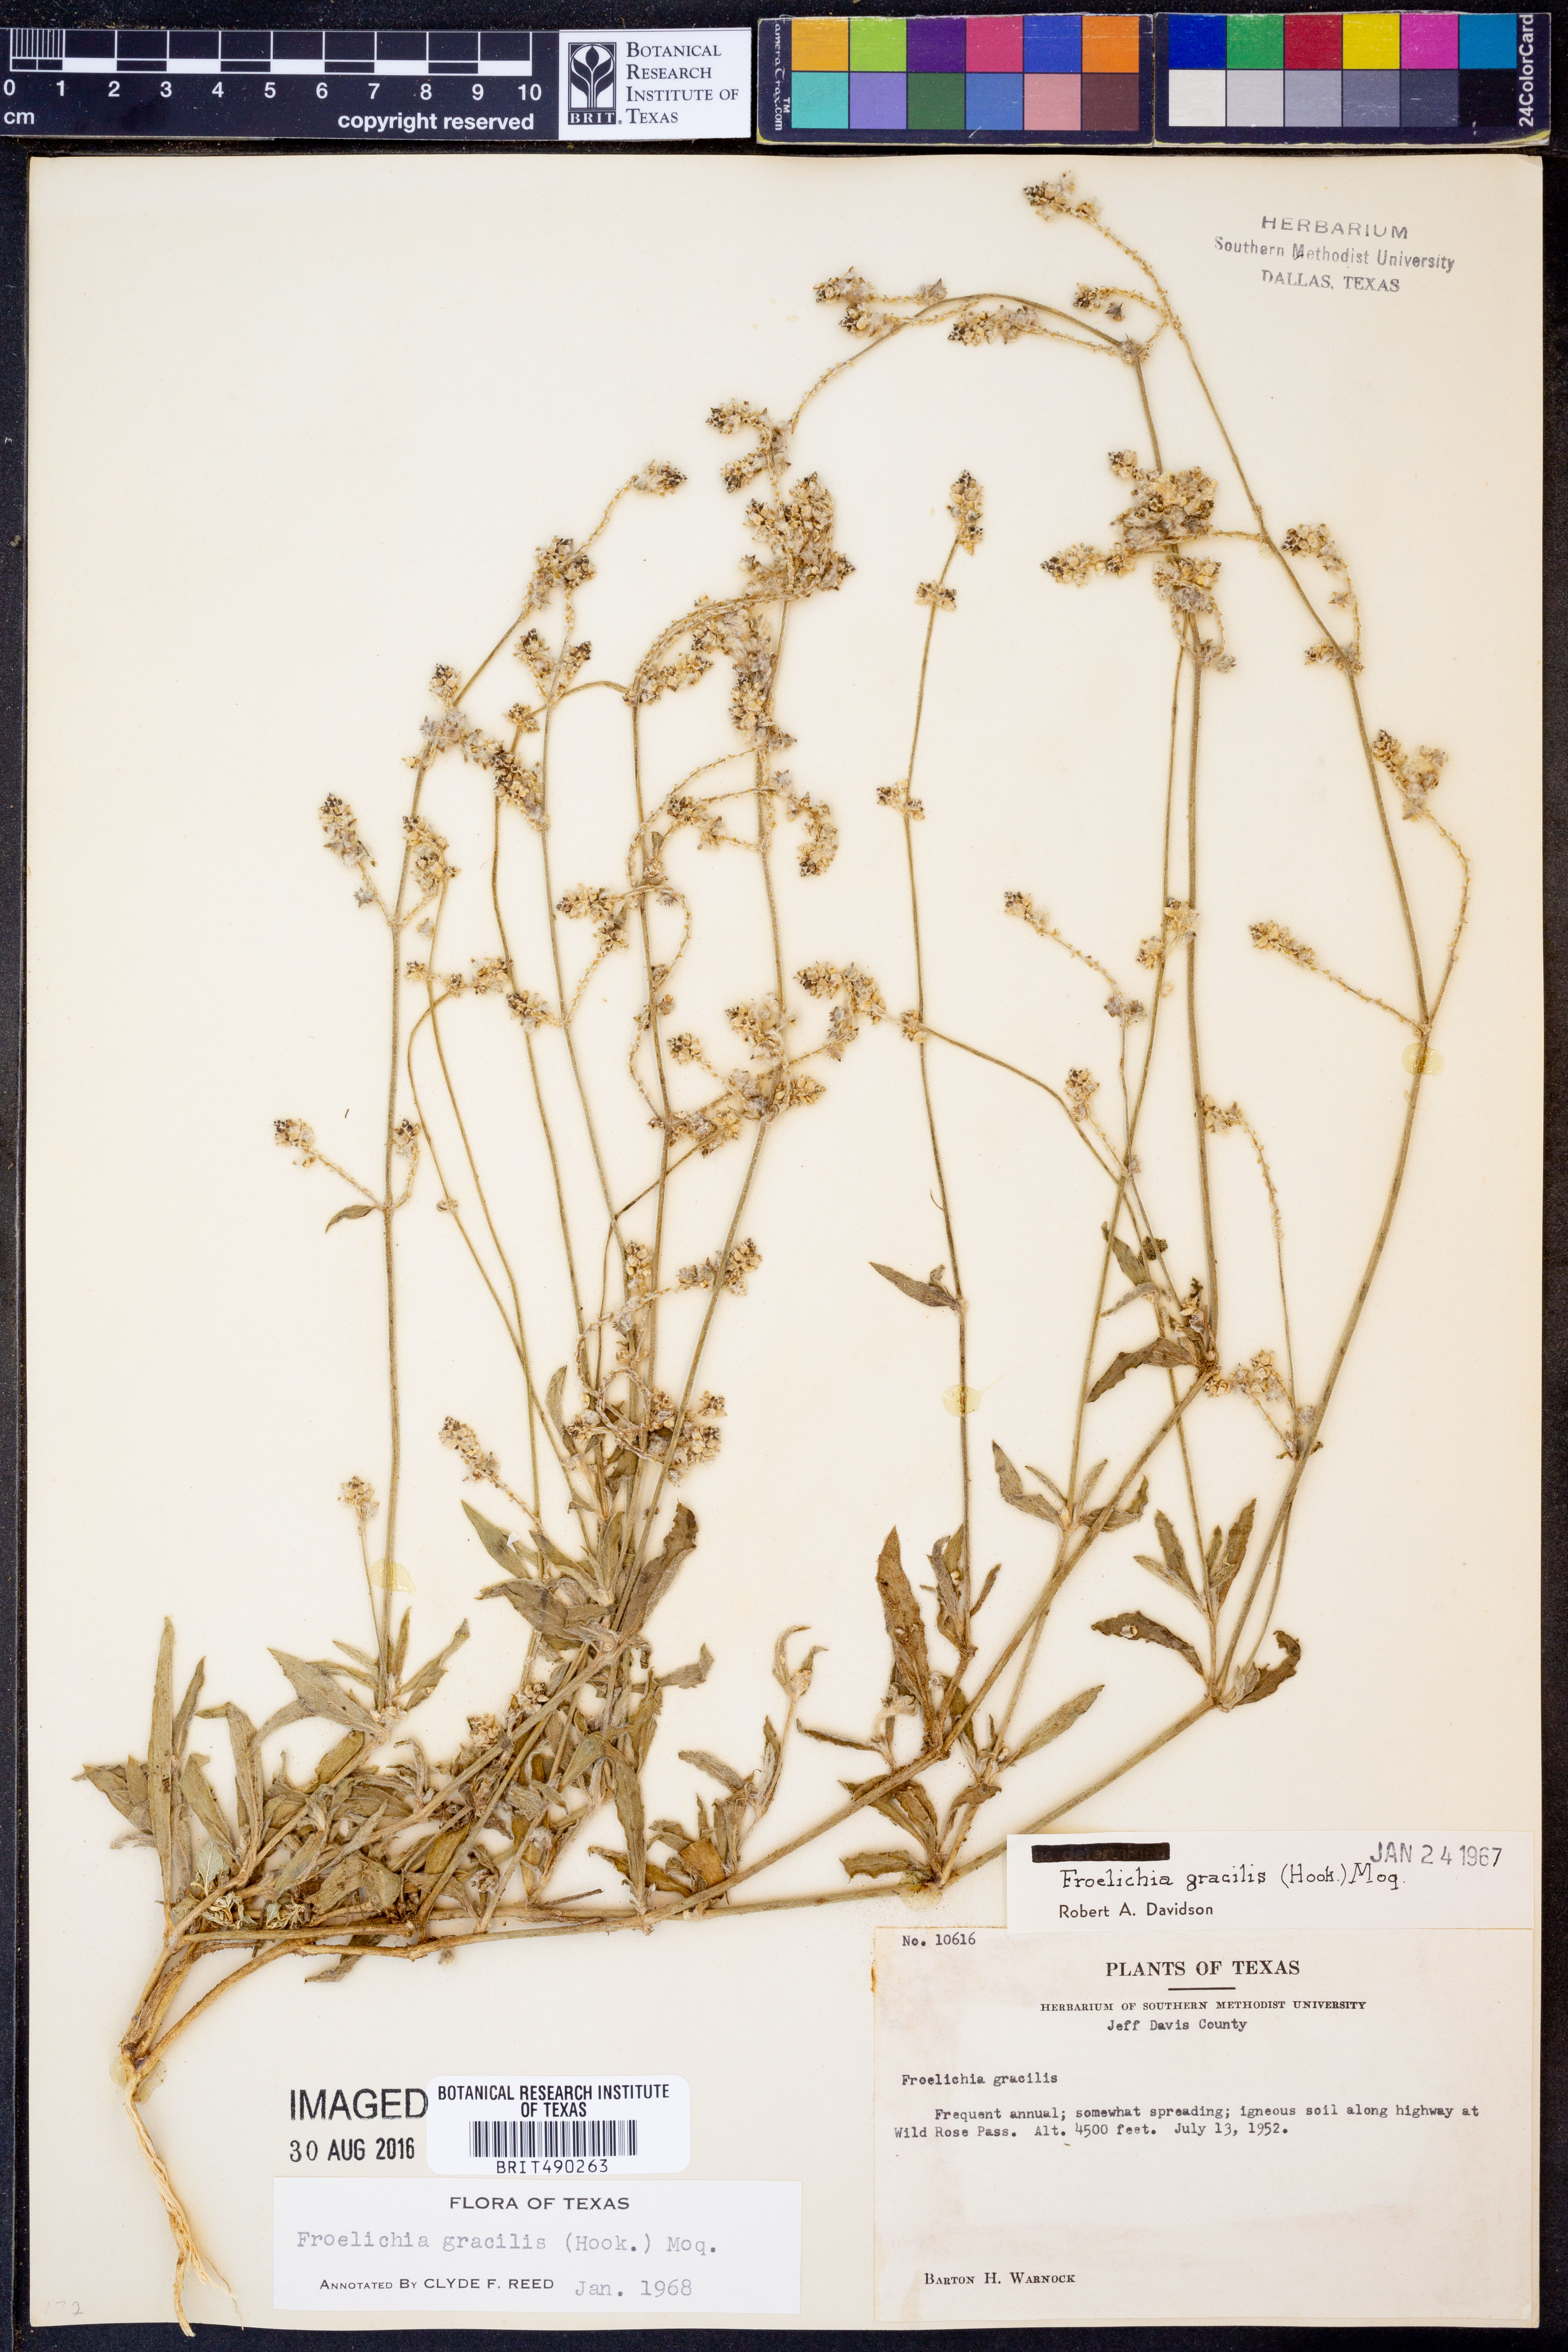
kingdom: Plantae
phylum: Tracheophyta
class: Magnoliopsida
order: Caryophyllales
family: Amaranthaceae
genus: Froelichia
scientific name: Froelichia gracilis
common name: Slender cottonweed
